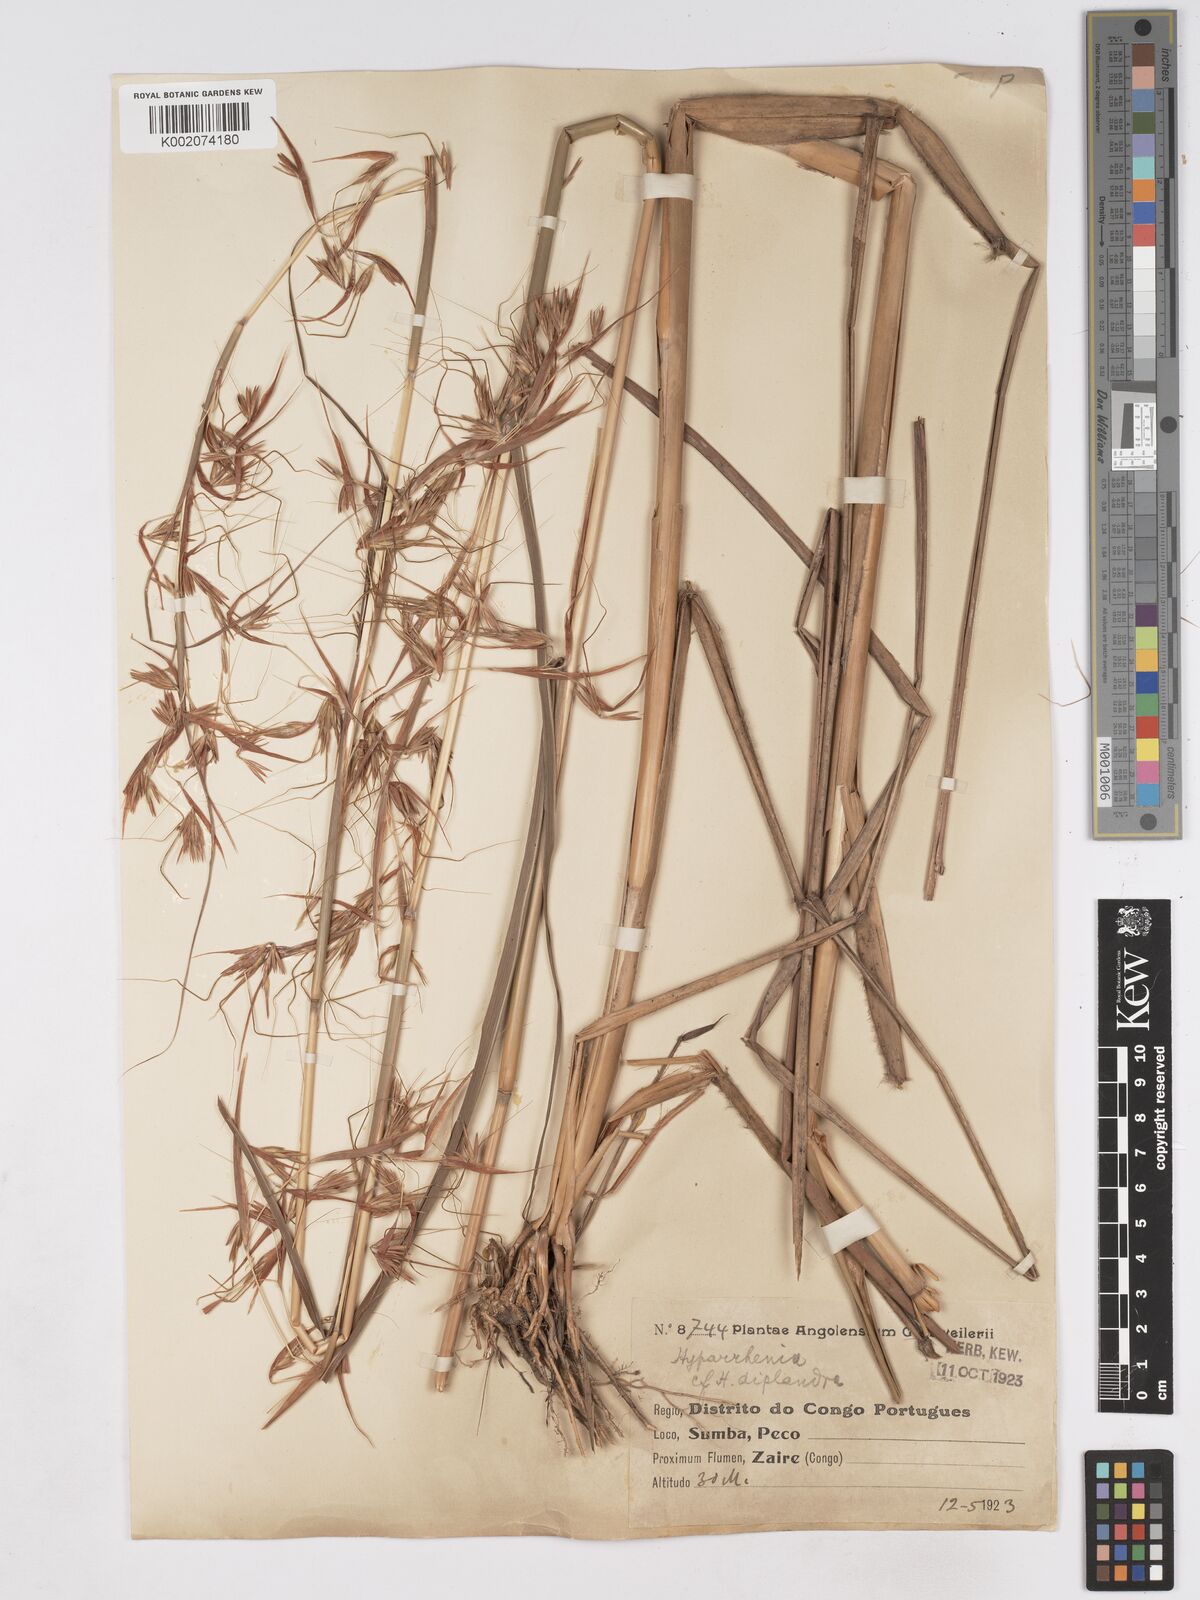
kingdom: Plantae
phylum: Tracheophyta
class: Liliopsida
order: Poales
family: Poaceae
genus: Hyparrhenia
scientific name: Hyparrhenia diplandra
